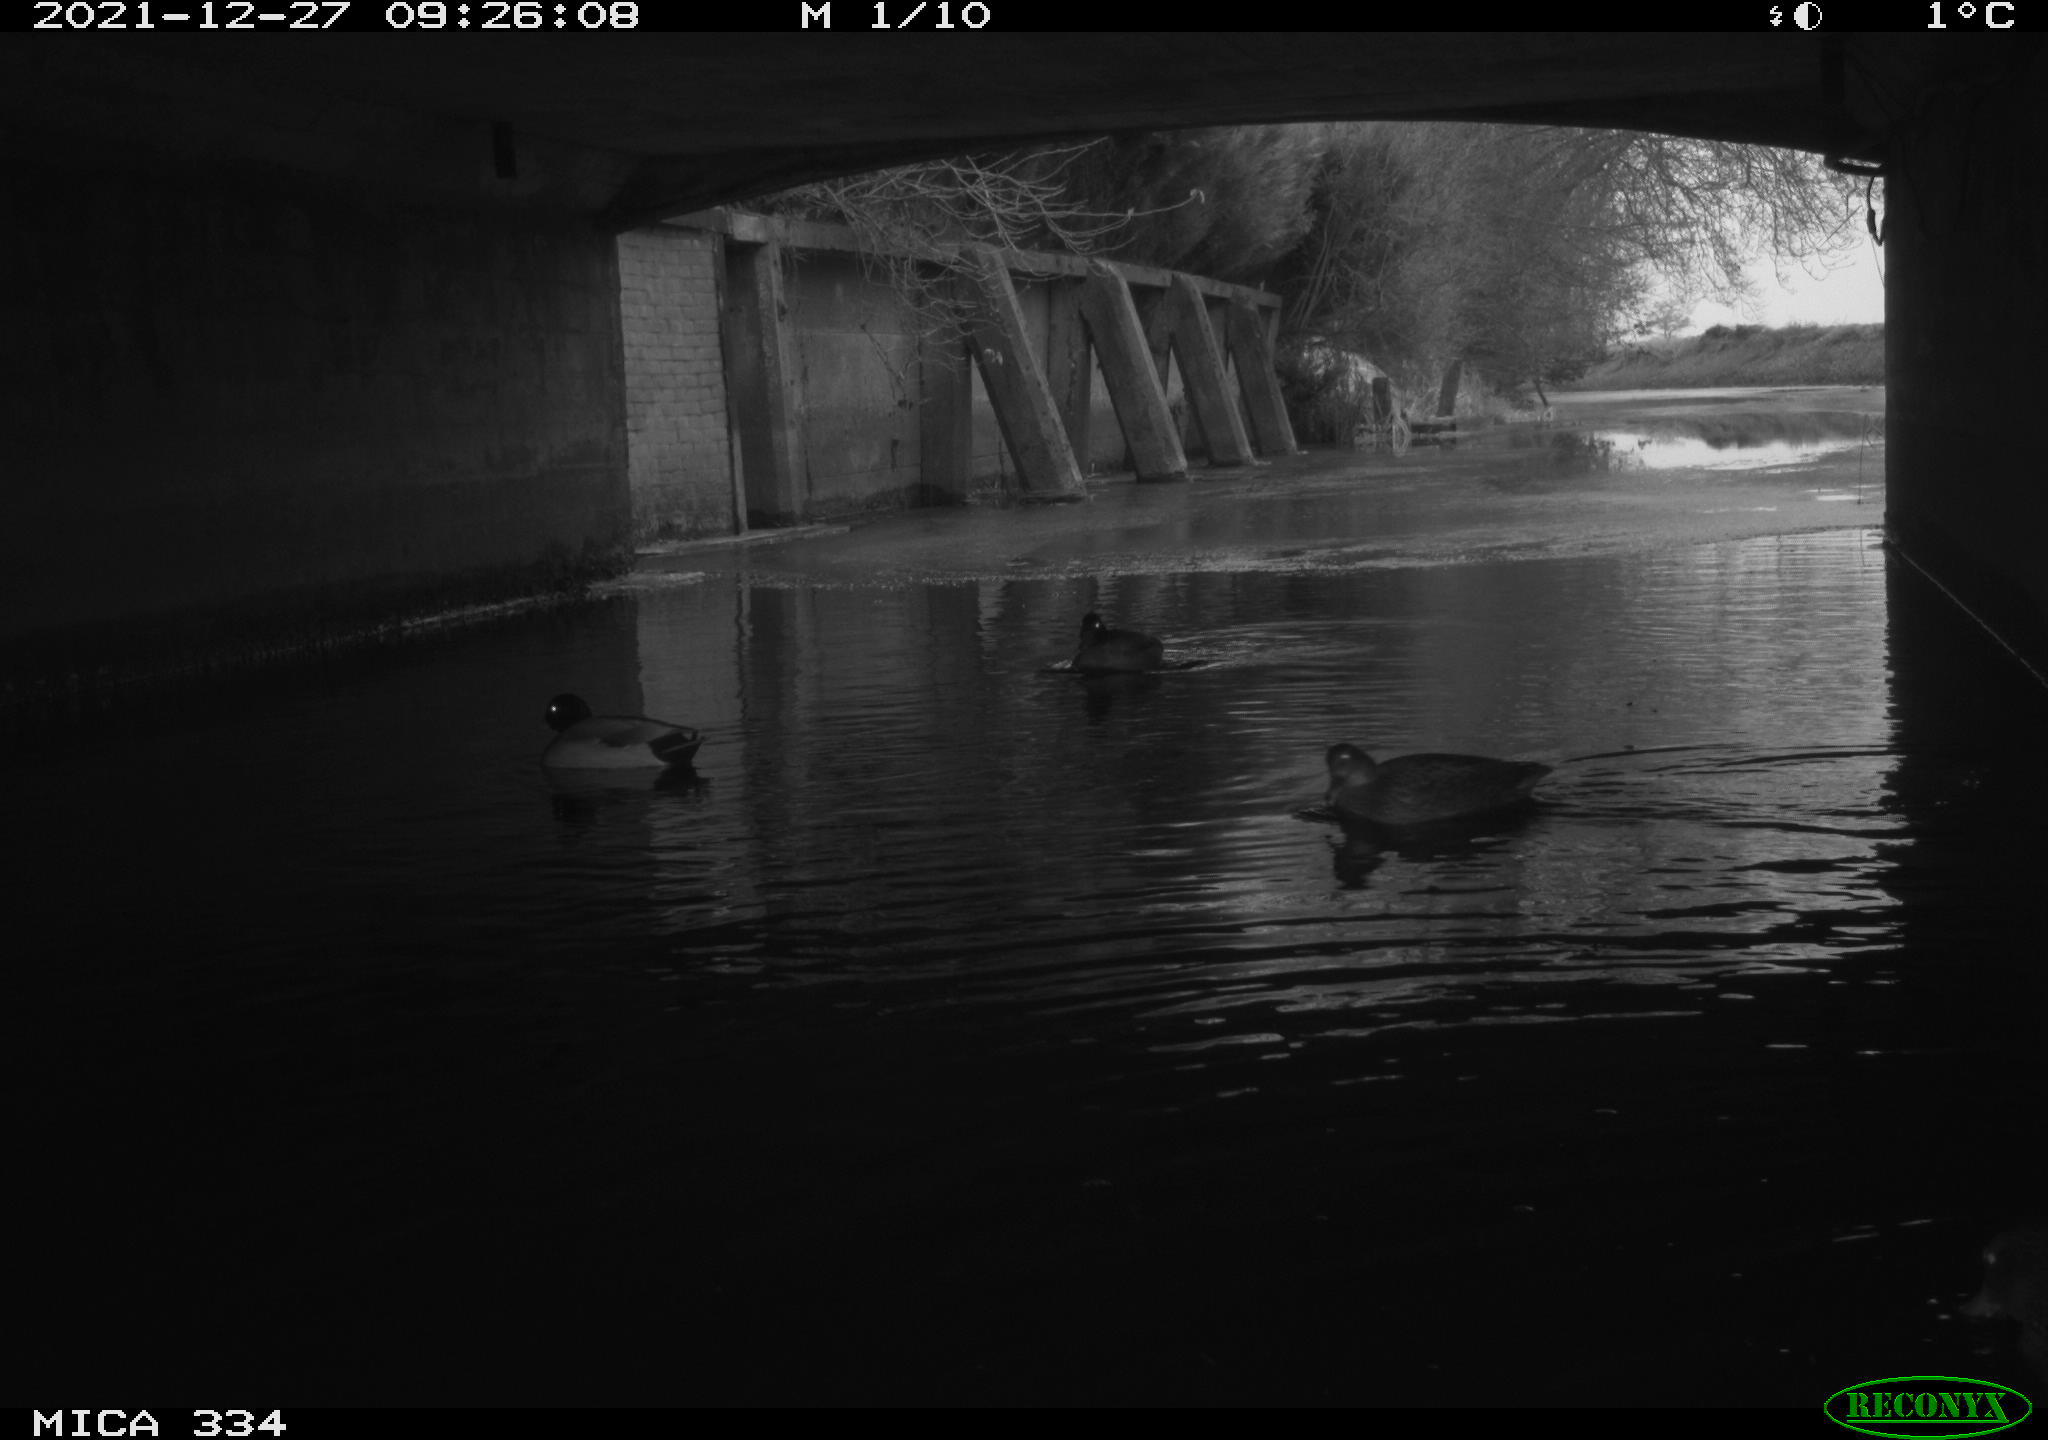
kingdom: Animalia
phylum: Chordata
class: Aves
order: Anseriformes
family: Anatidae
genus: Anas
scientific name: Anas platyrhynchos
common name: Mallard
